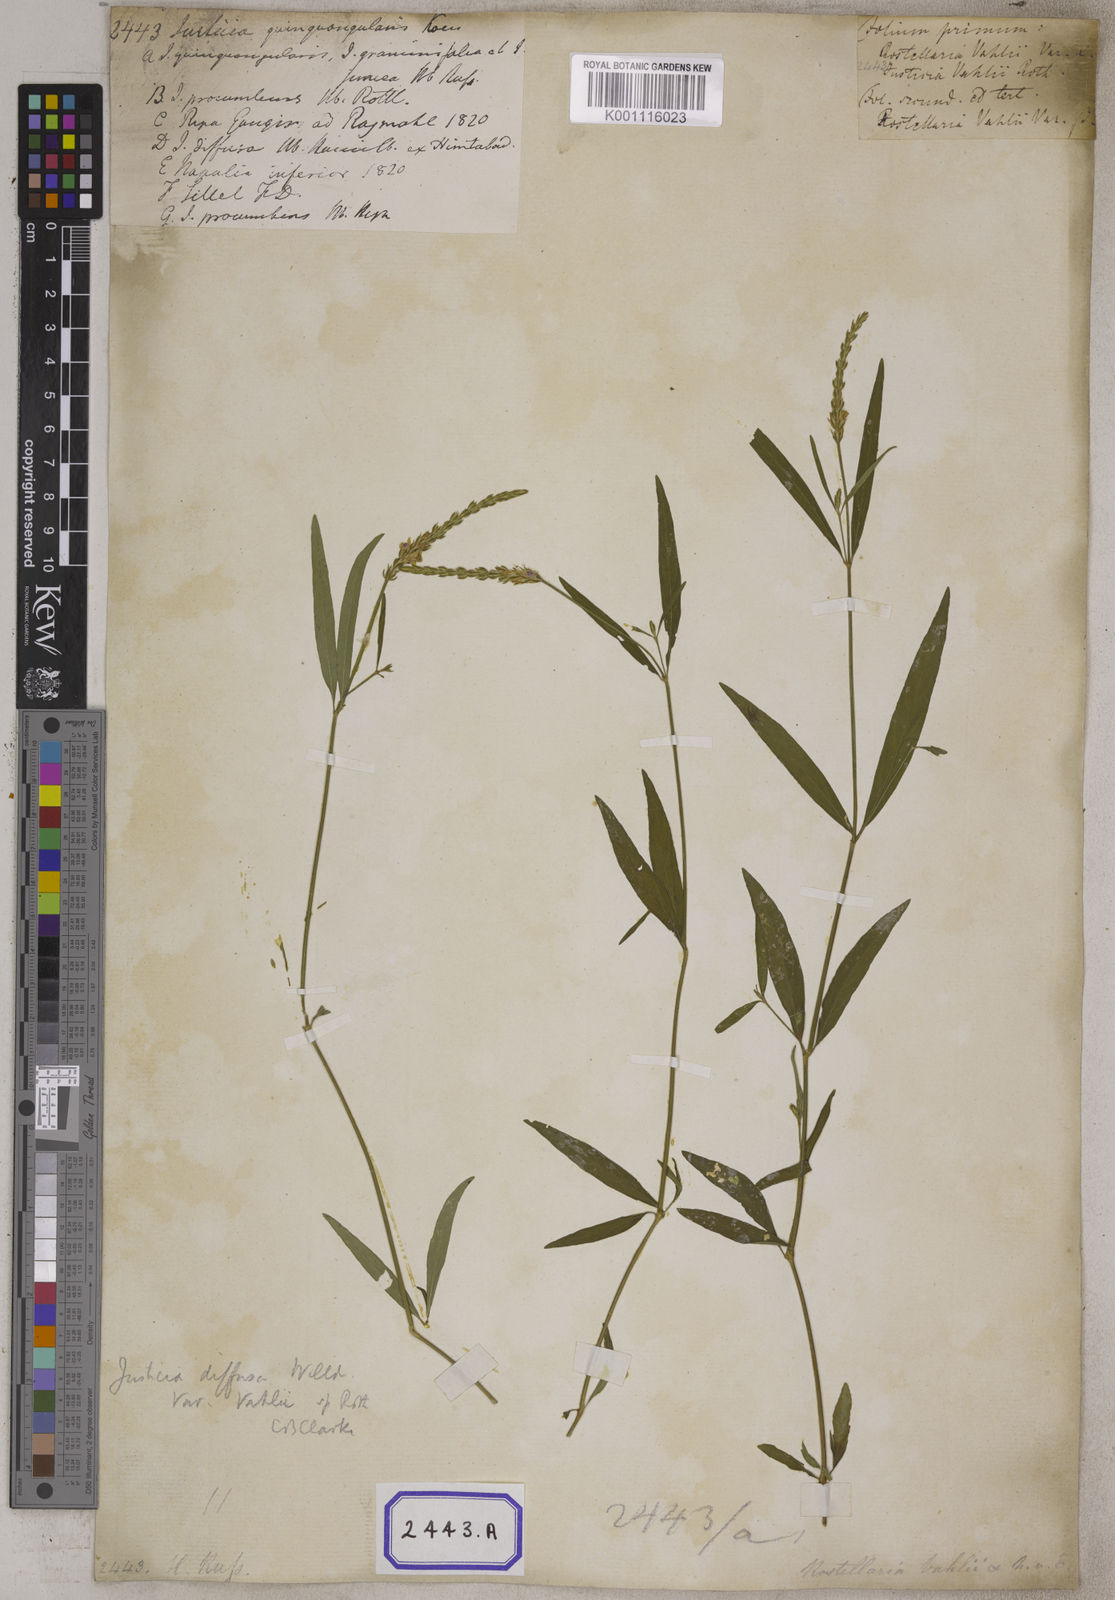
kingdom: Plantae
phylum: Tracheophyta
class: Magnoliopsida
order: Lamiales
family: Acanthaceae
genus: Rostellularia
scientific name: Rostellularia diffusa
